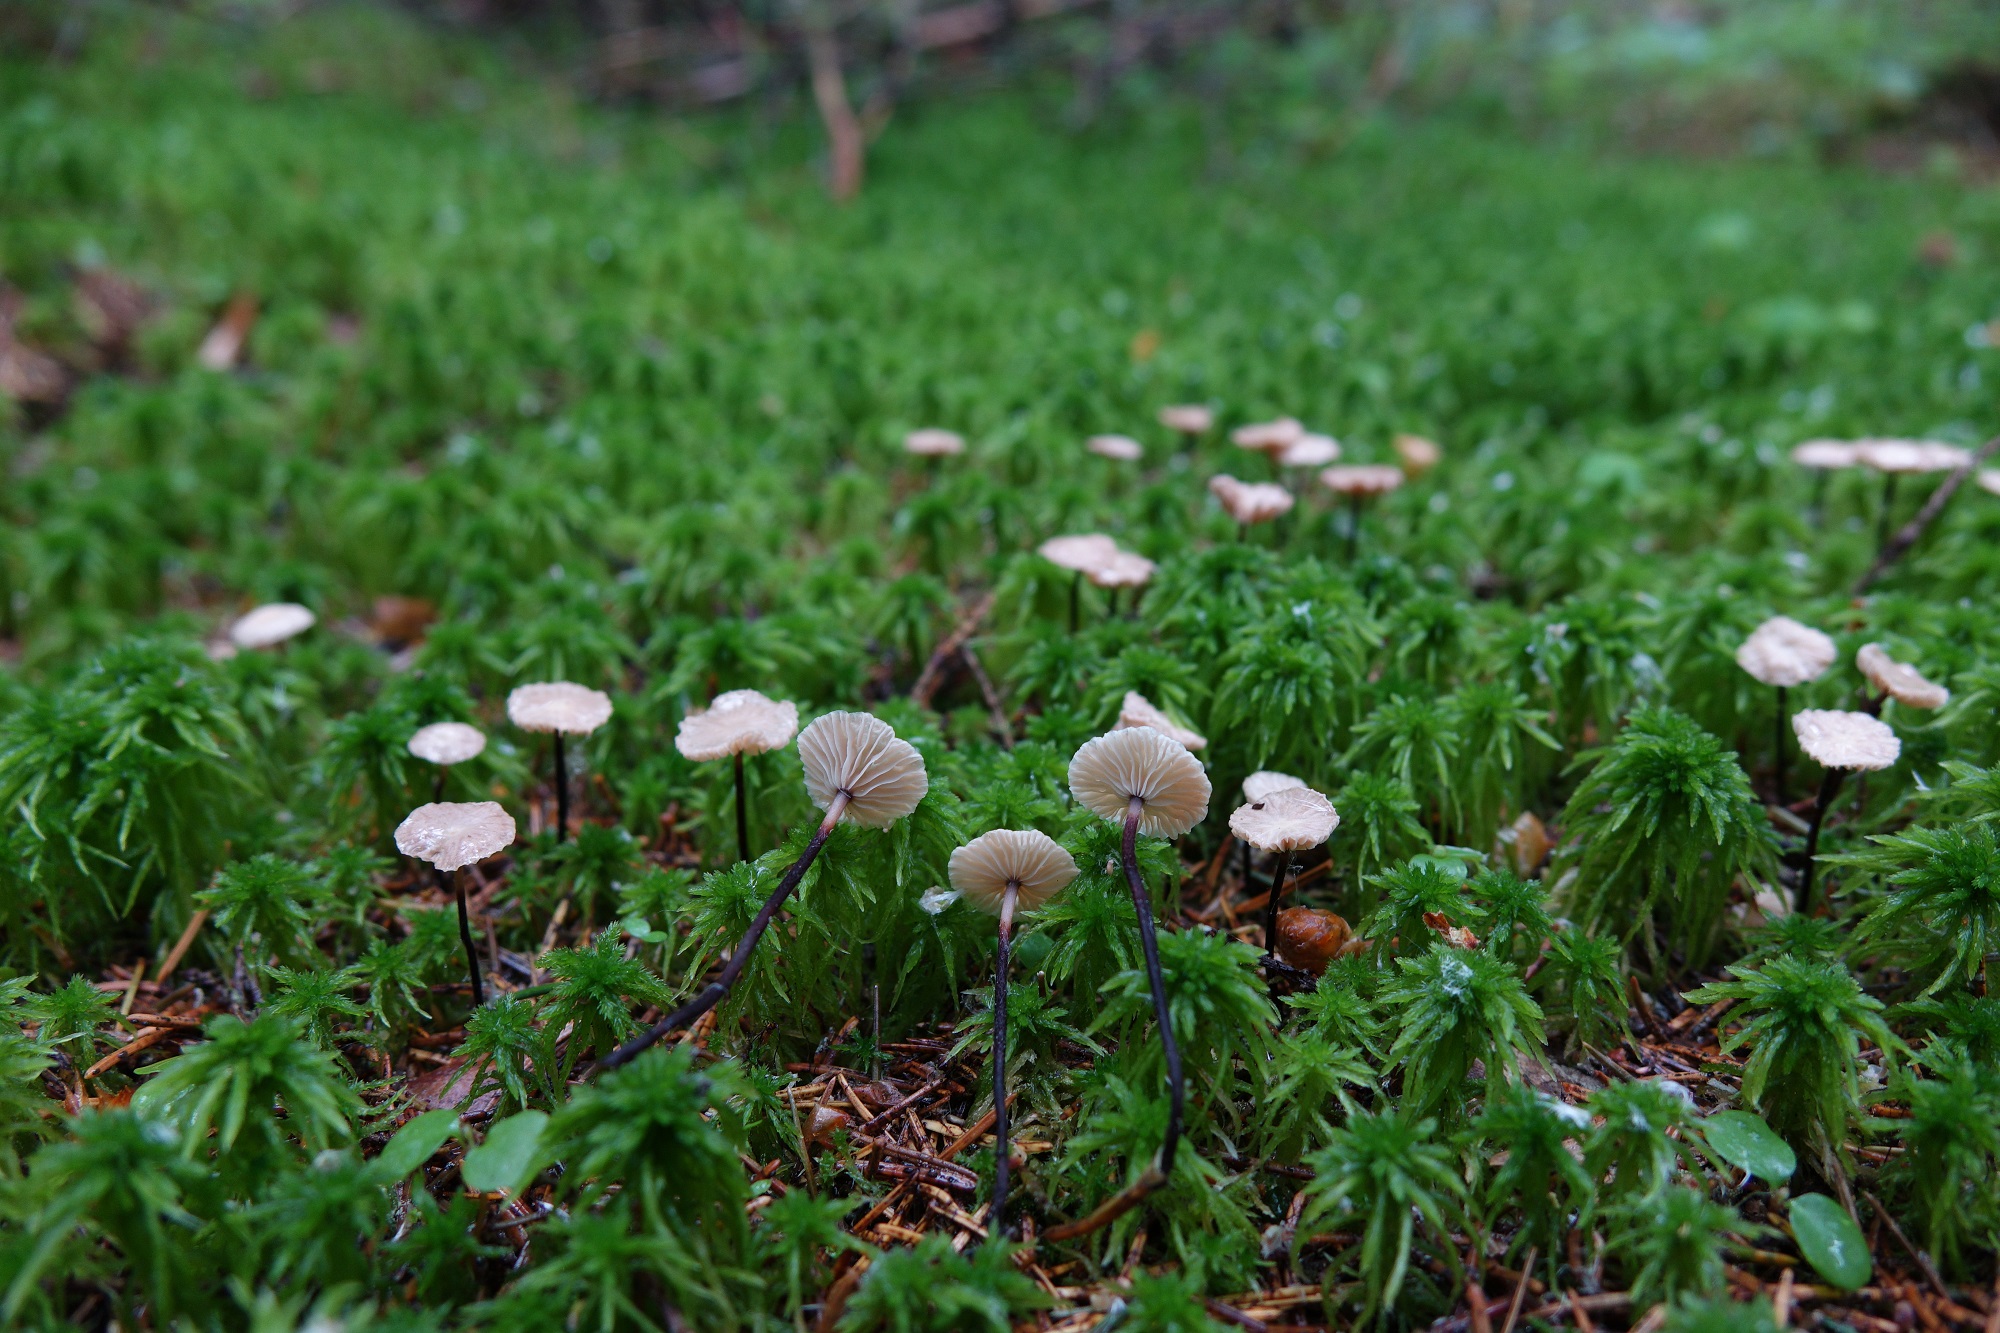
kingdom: Fungi
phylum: Basidiomycota
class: Agaricomycetes
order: Agaricales
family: Omphalotaceae
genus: Paragymnopus
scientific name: Paragymnopus perforans
